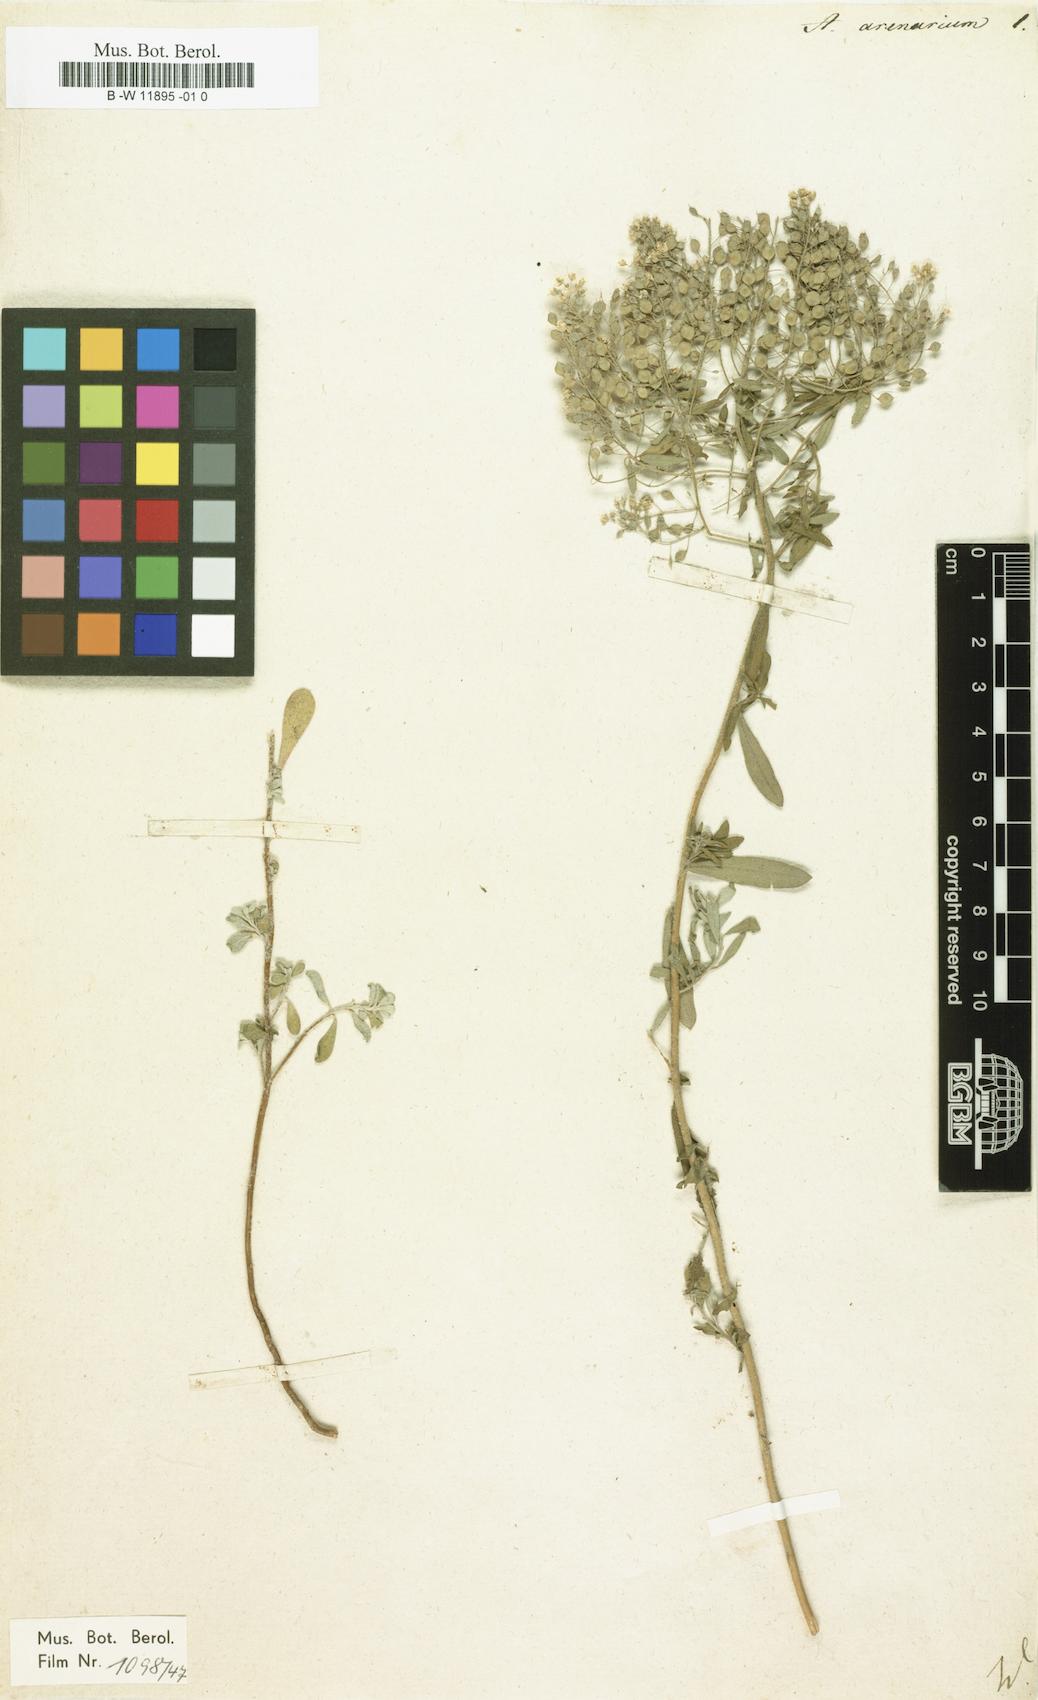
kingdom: Plantae
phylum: Tracheophyta
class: Magnoliopsida
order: Brassicales
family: Brassicaceae
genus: Alyssum
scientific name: Alyssum gmelinii
